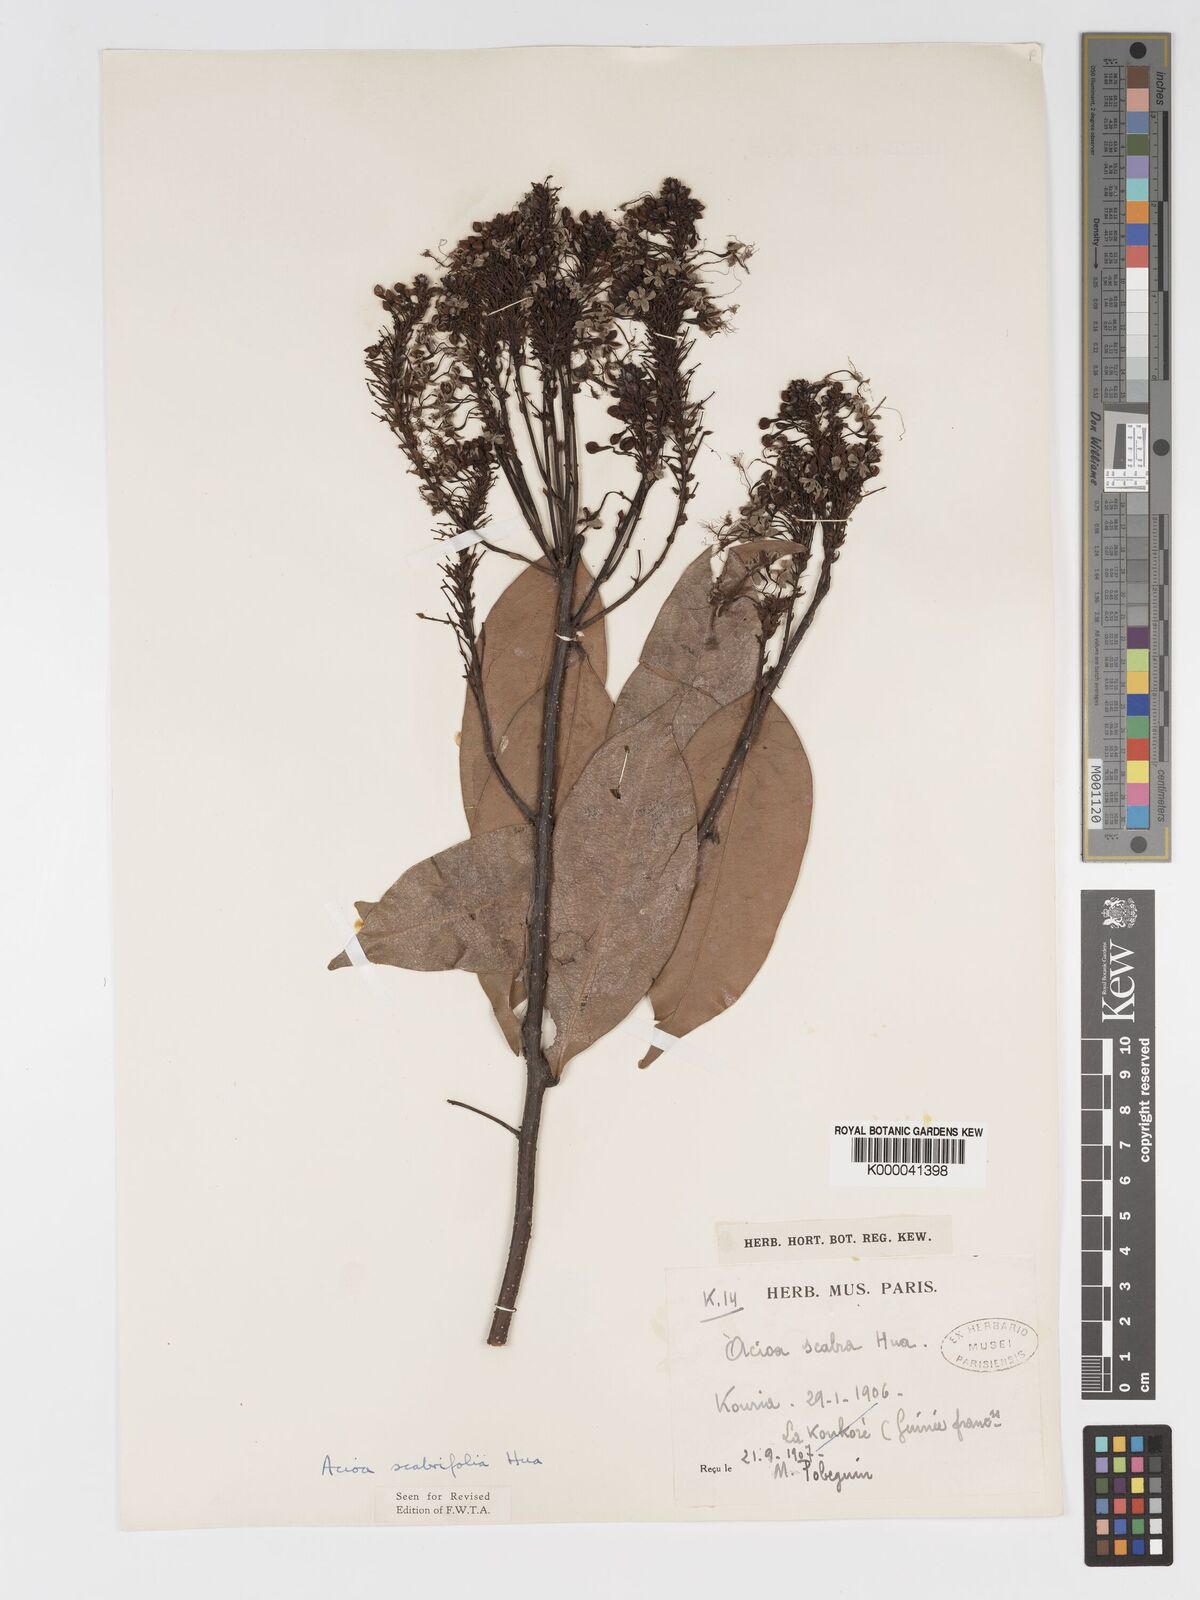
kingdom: Plantae
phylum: Tracheophyta
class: Magnoliopsida
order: Malpighiales
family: Chrysobalanaceae
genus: Dactyladenia
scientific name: Dactyladenia scabrifolia
